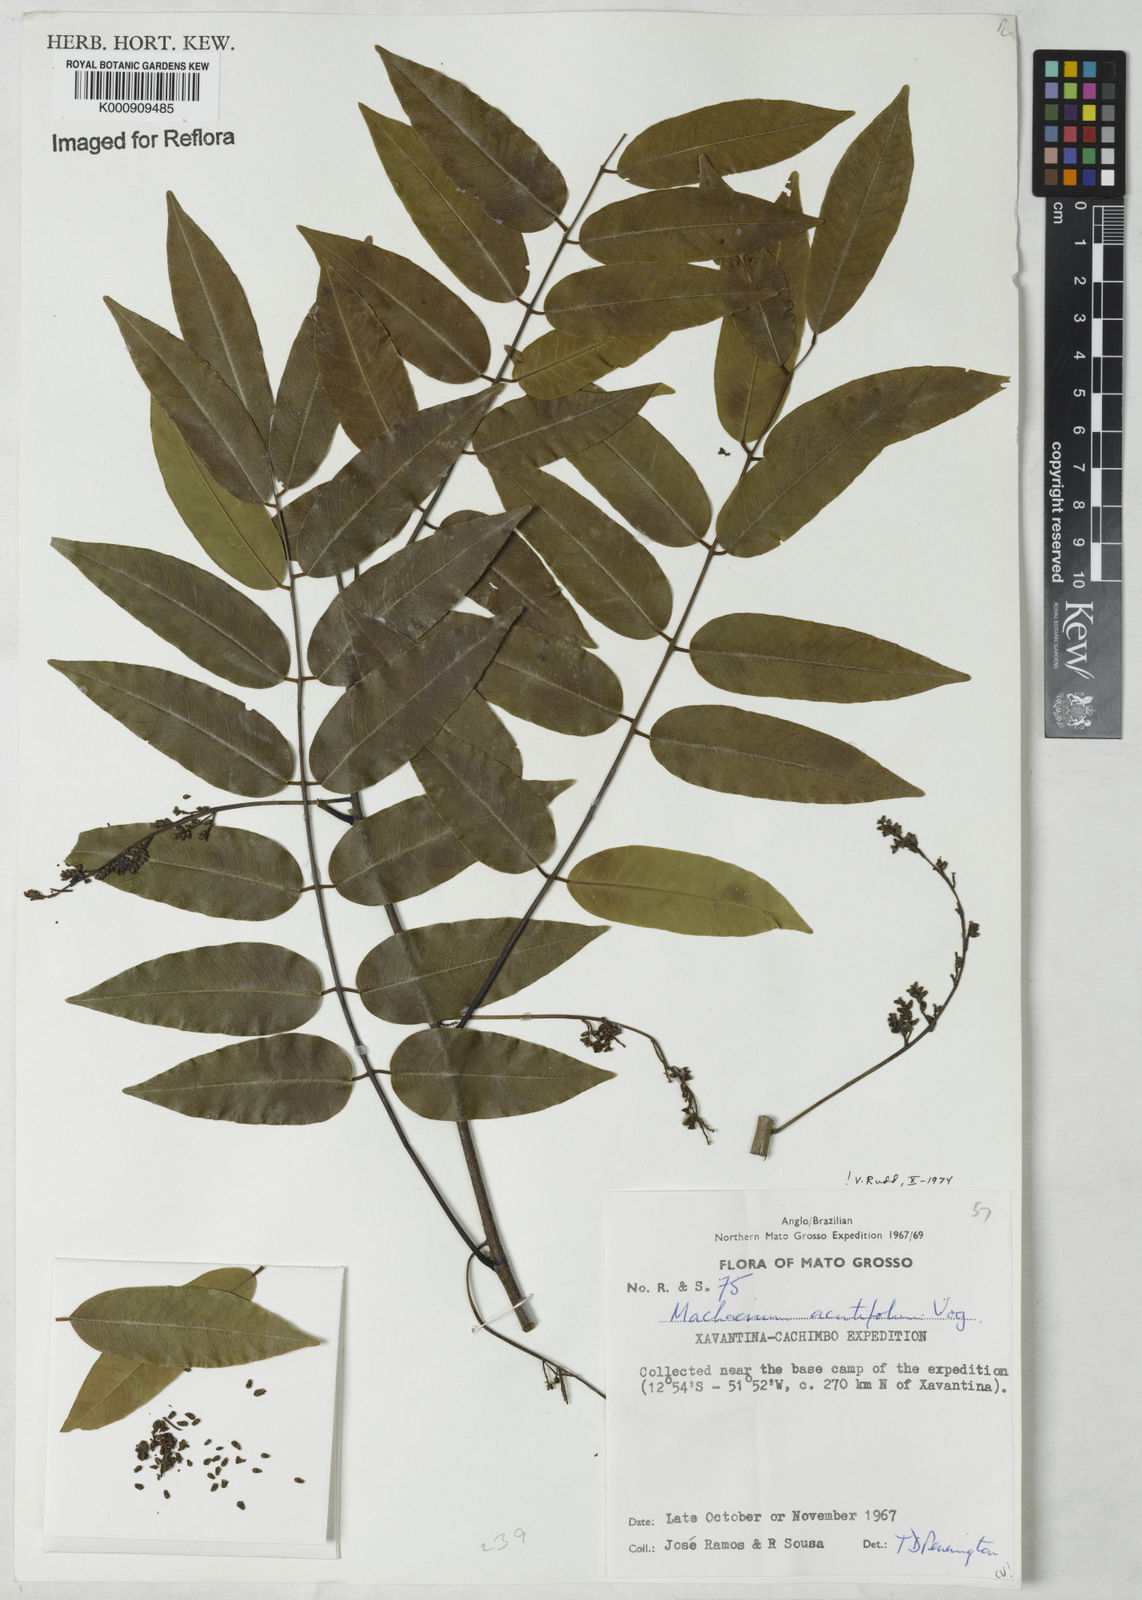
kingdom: Plantae
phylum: Tracheophyta
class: Magnoliopsida
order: Fabales
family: Fabaceae
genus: Machaerium
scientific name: Machaerium acutifolium
